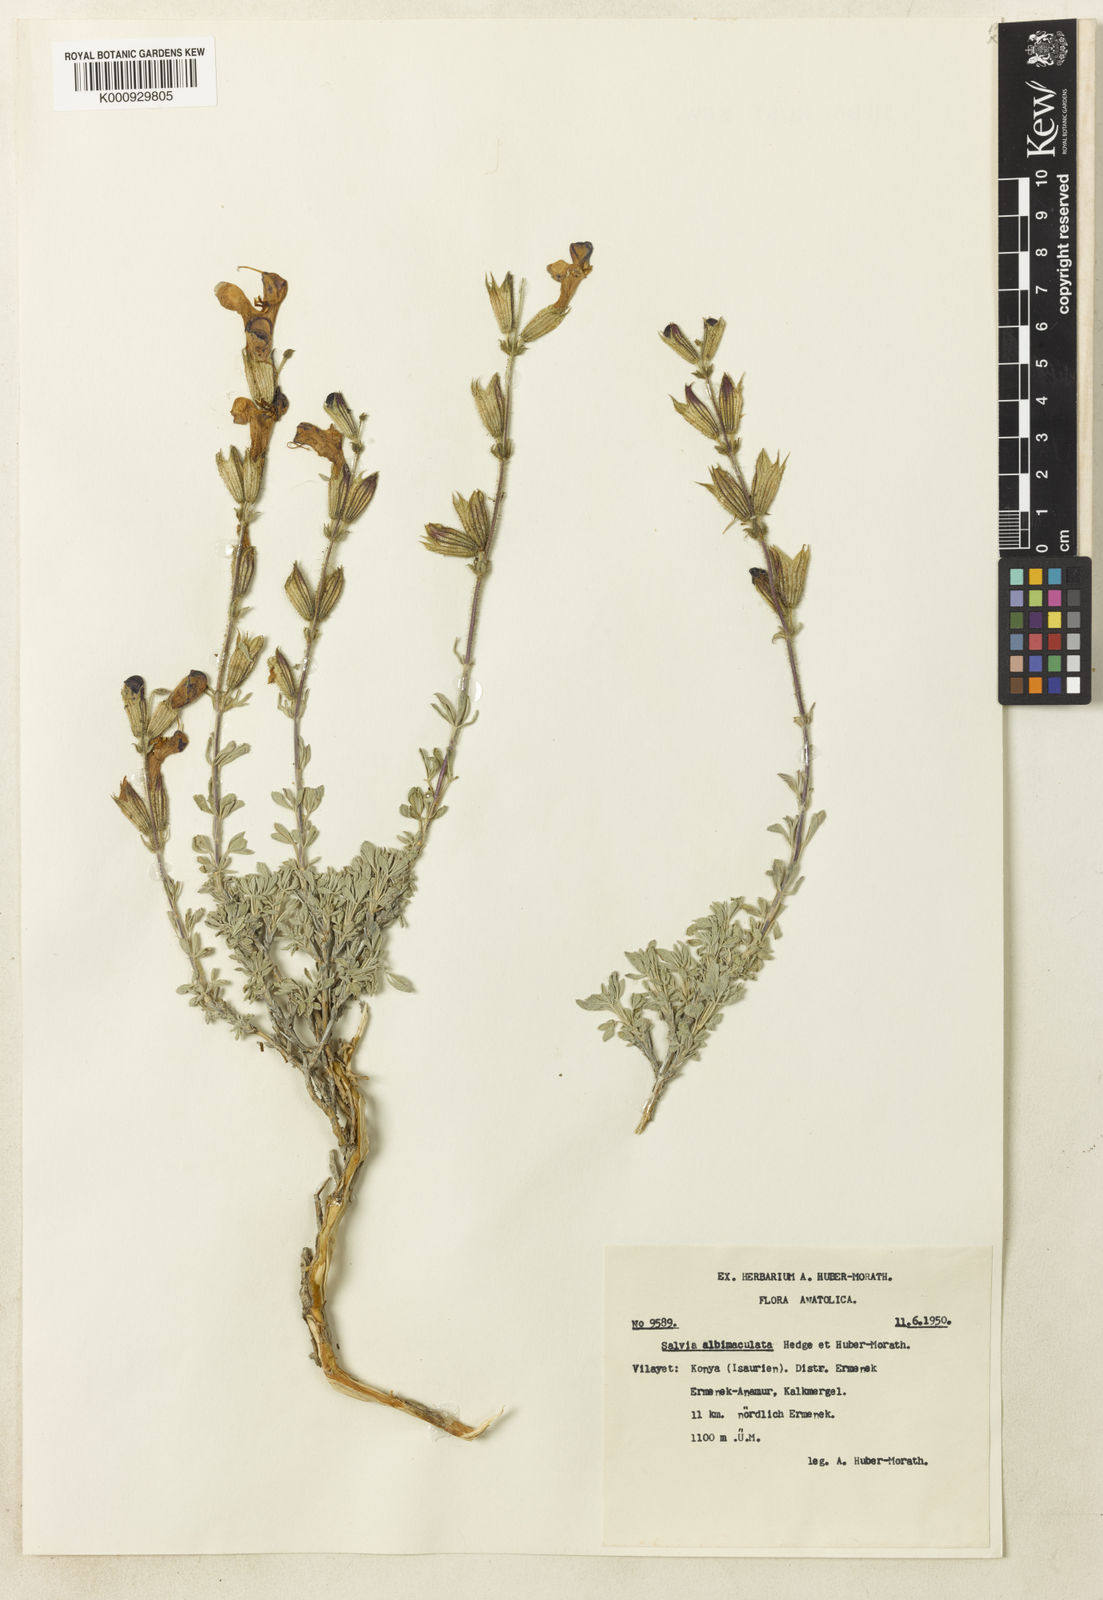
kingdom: Plantae
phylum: Tracheophyta
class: Magnoliopsida
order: Lamiales
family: Lamiaceae
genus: Salvia
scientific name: Salvia albimaculata
